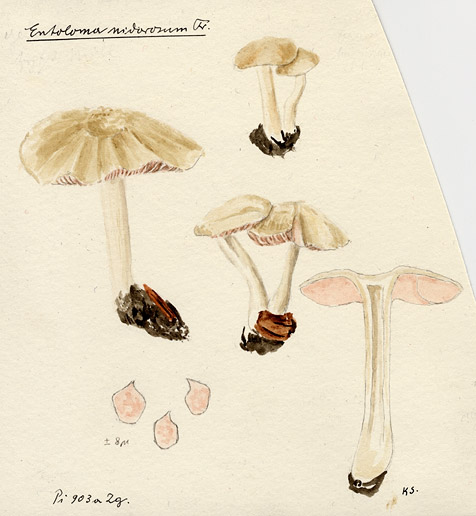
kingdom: Fungi
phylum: Basidiomycota
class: Agaricomycetes
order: Agaricales
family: Entolomataceae
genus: Entoloma
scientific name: Entoloma rhodopolium
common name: Wood pinkgill
